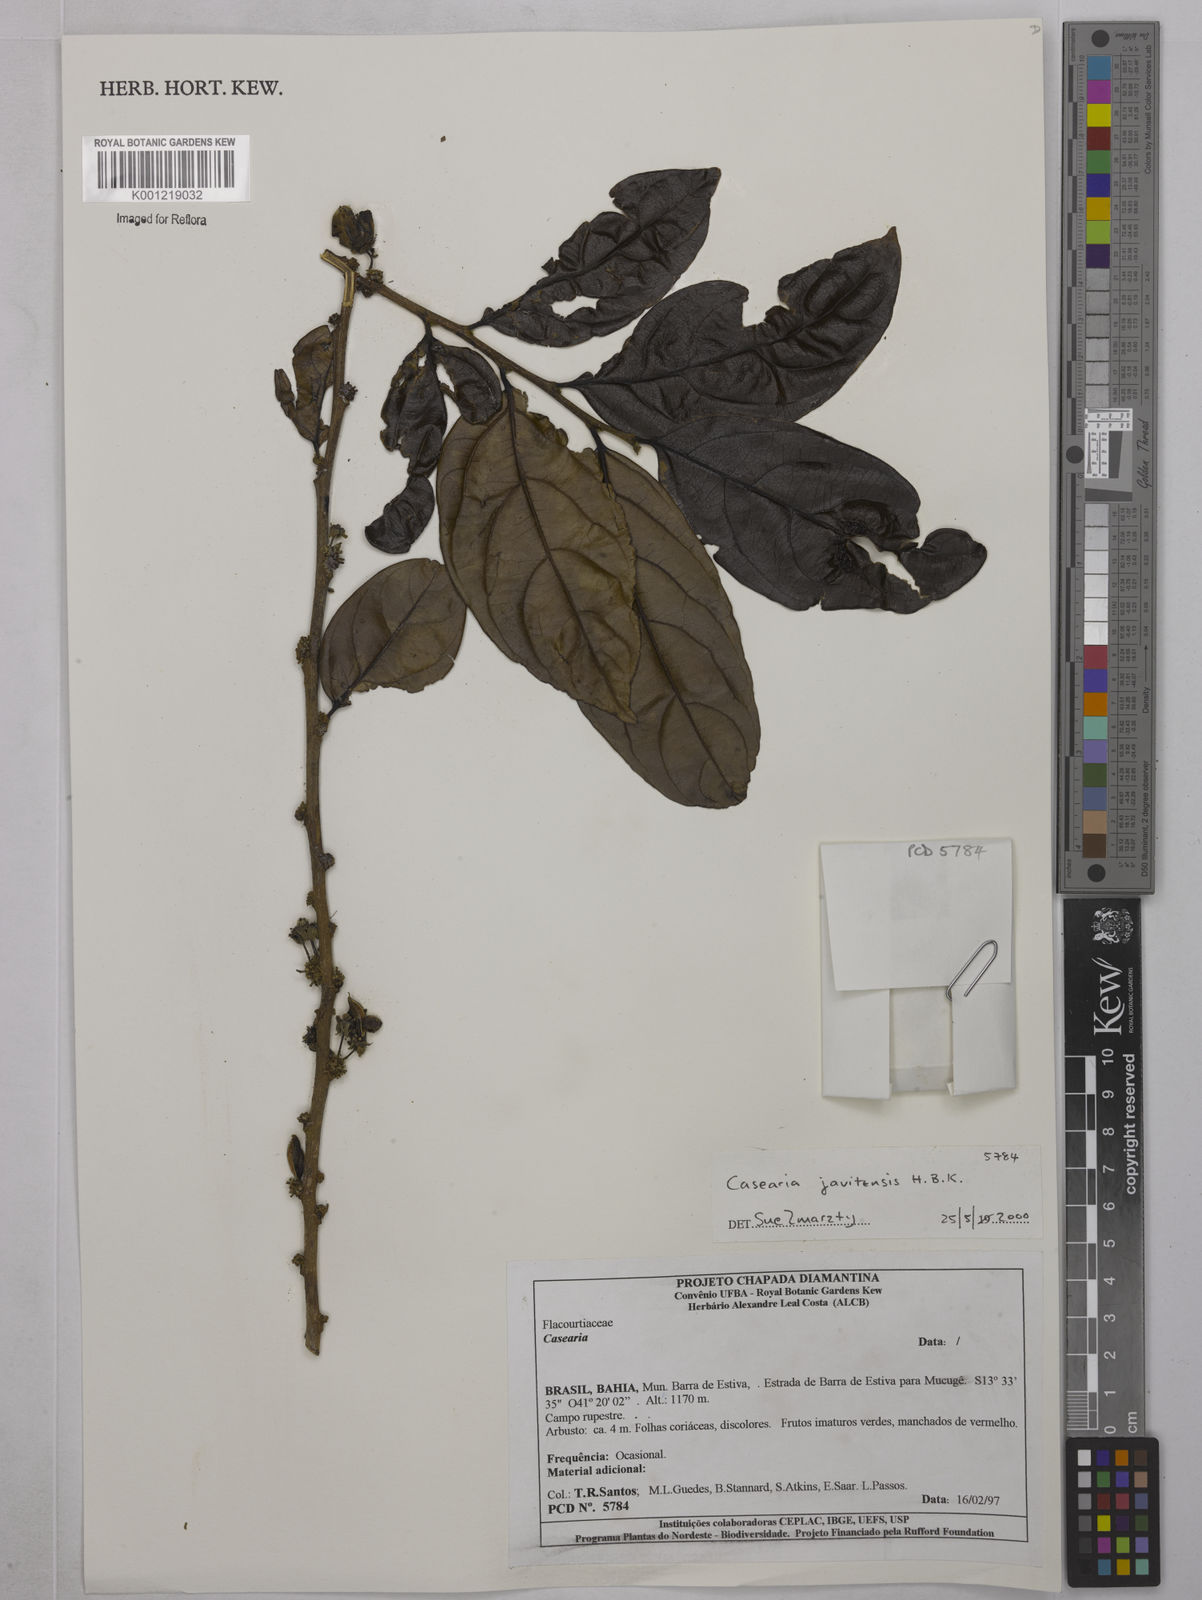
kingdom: Plantae
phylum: Tracheophyta
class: Magnoliopsida
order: Malpighiales
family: Salicaceae
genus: Piparea
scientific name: Piparea multiflora
